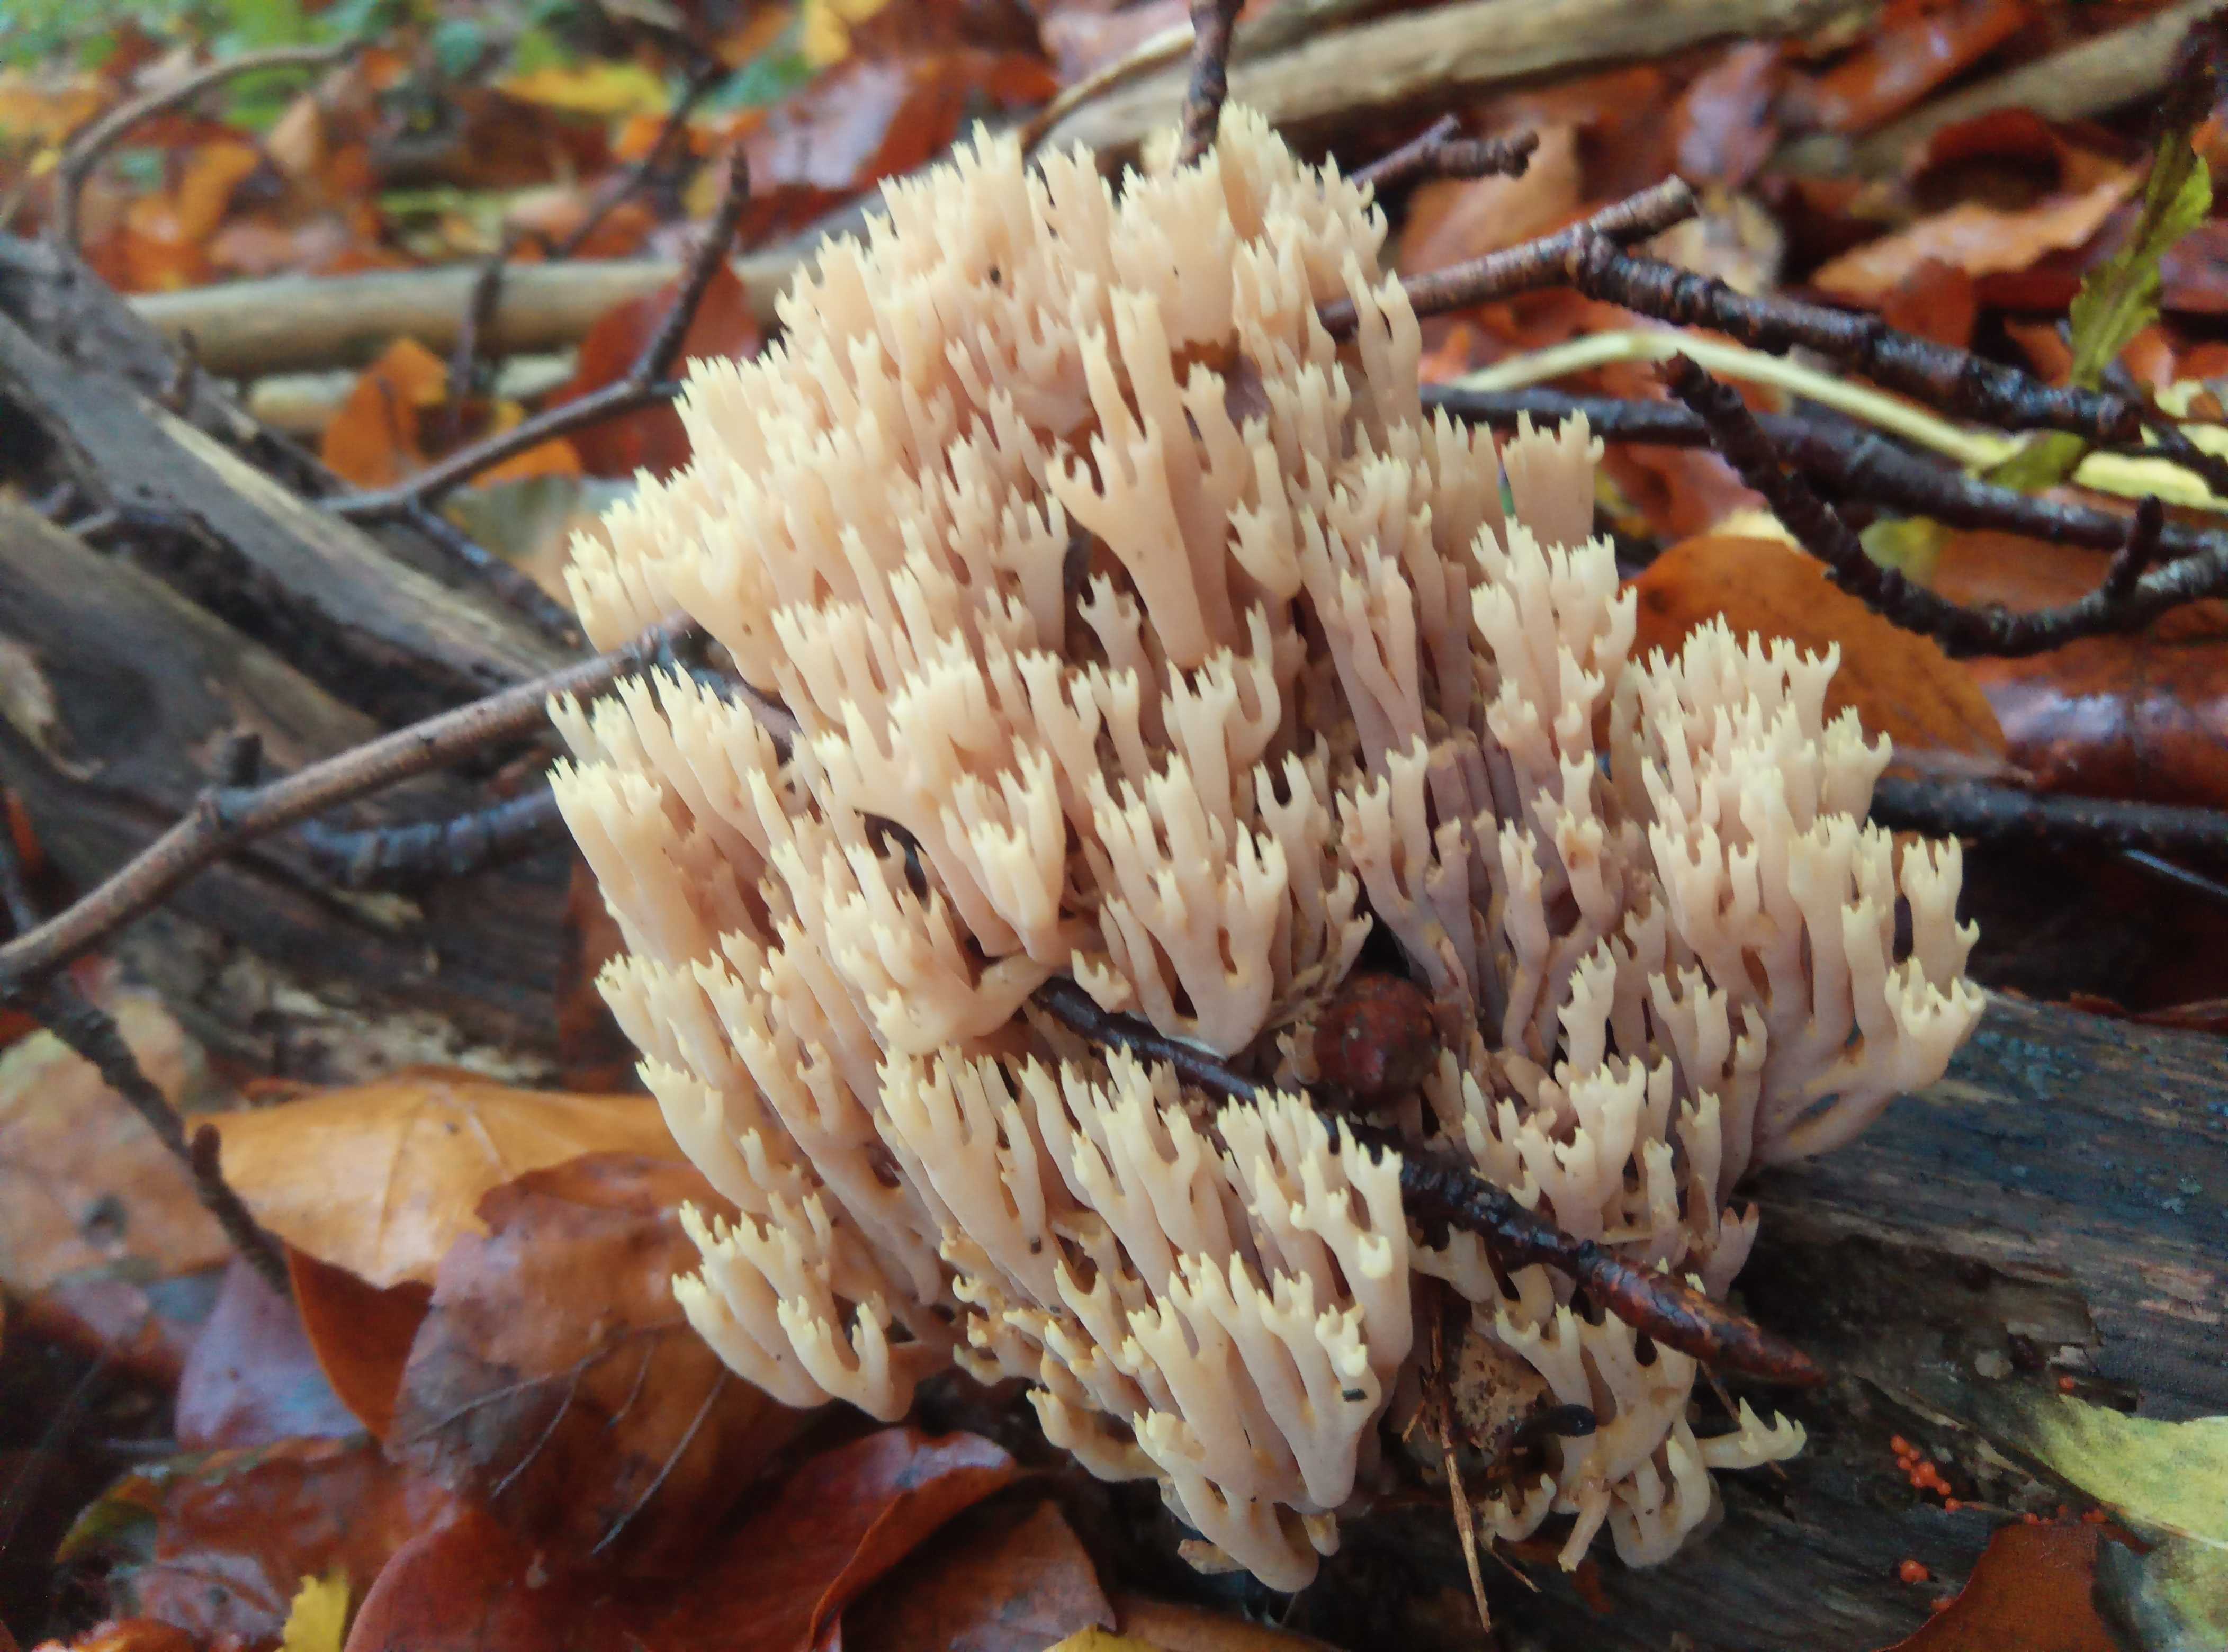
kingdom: Fungi
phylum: Basidiomycota
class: Agaricomycetes
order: Gomphales
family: Gomphaceae
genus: Ramaria
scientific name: Ramaria stricta
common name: rank koralsvamp
